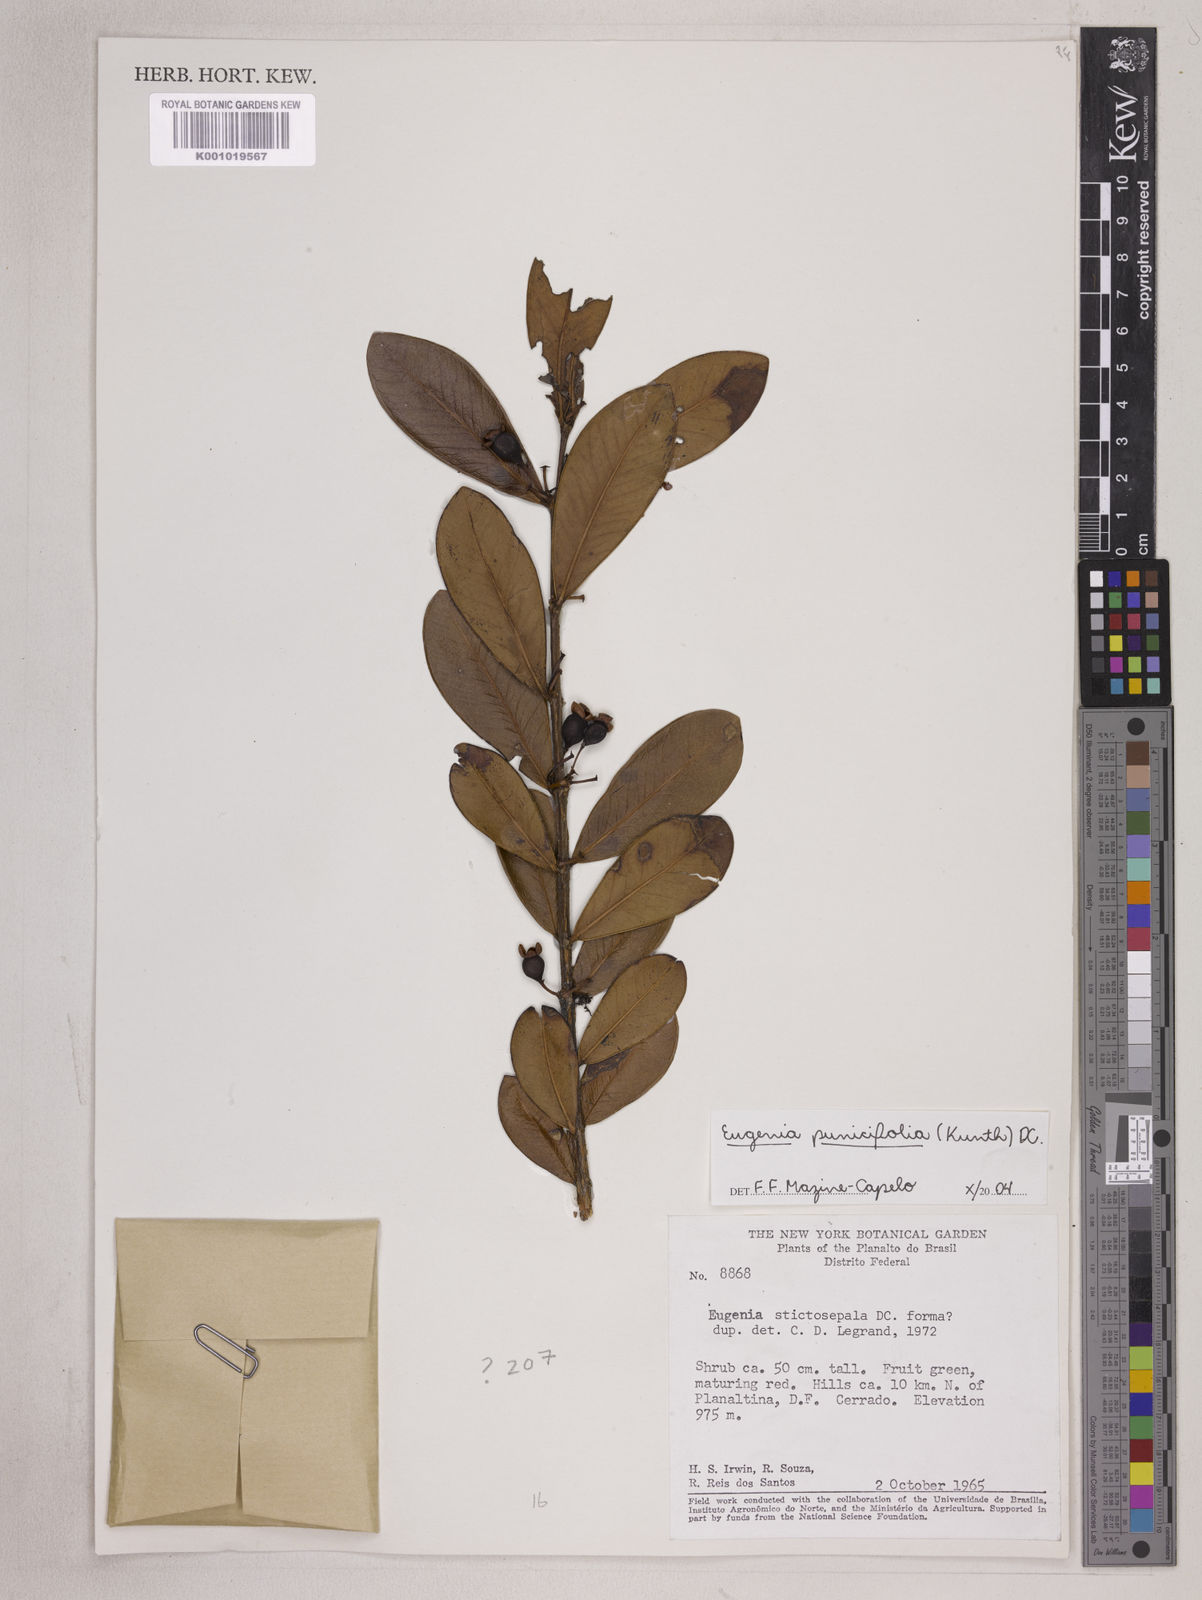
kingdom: Plantae
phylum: Tracheophyta
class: Magnoliopsida
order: Myrtales
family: Myrtaceae
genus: Eugenia
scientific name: Eugenia punicifolia
